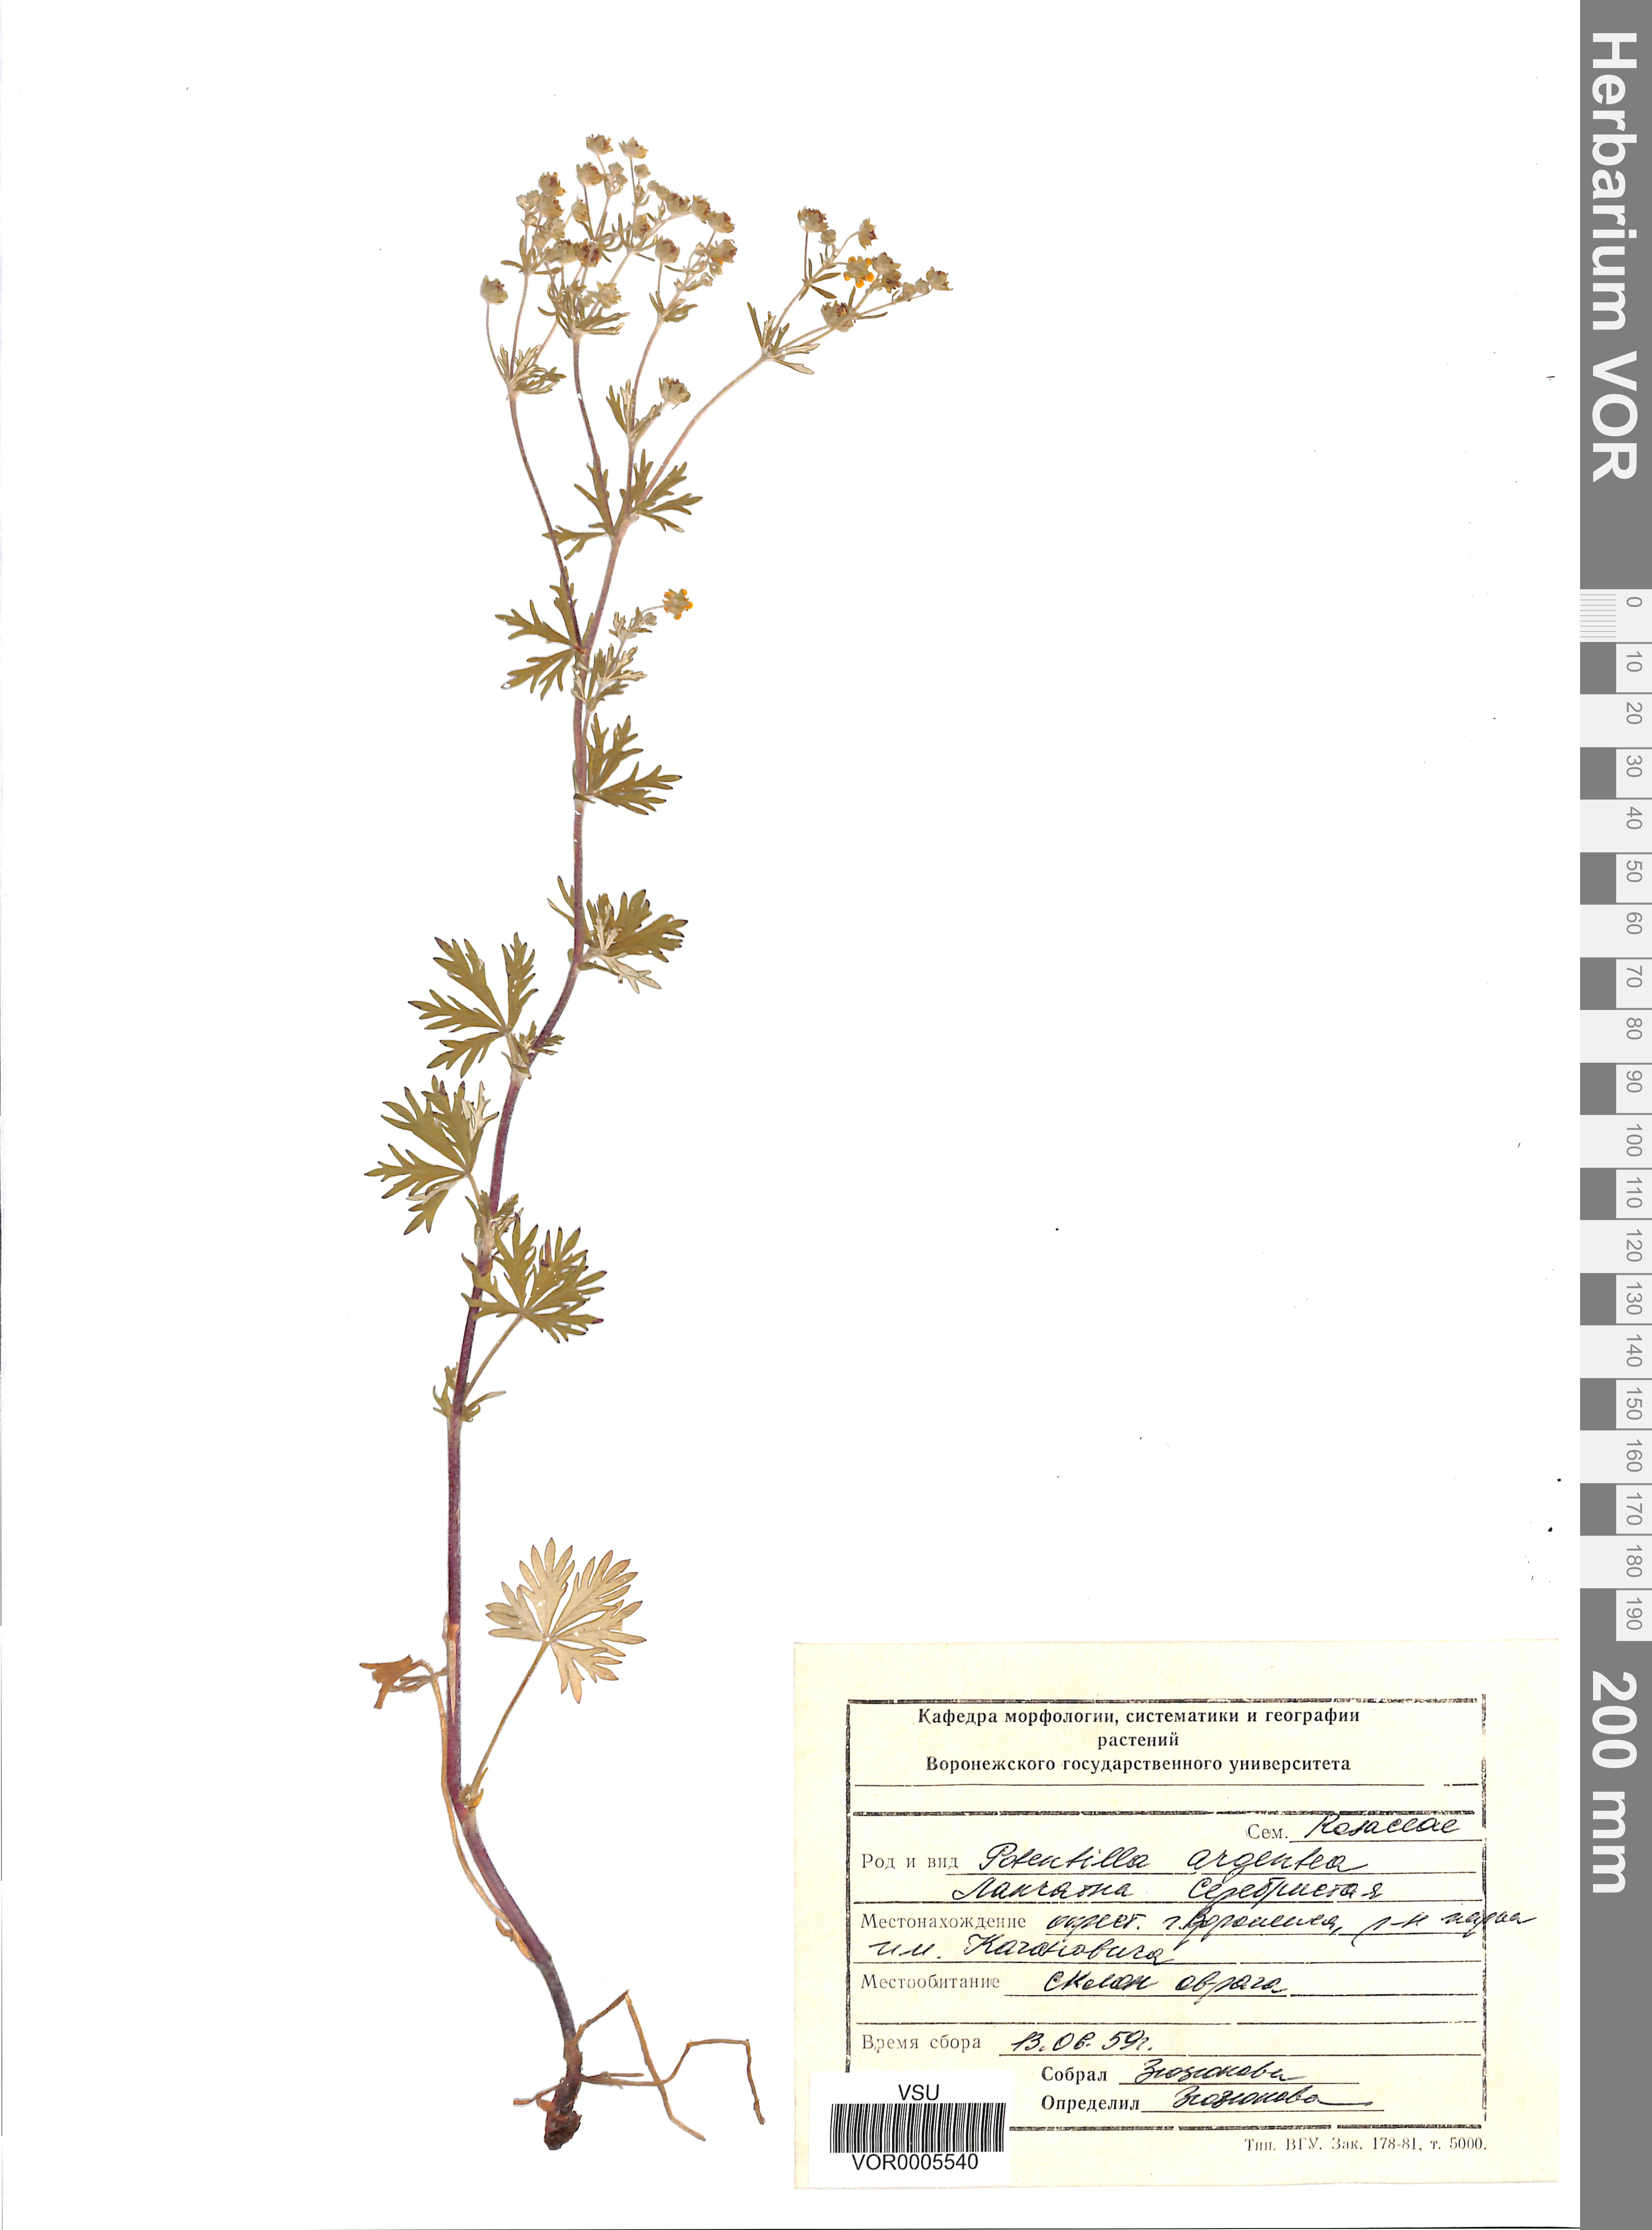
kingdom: Plantae
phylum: Tracheophyta
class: Magnoliopsida
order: Rosales
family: Rosaceae
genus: Potentilla
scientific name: Potentilla argentea
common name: Hoary cinquefoil
